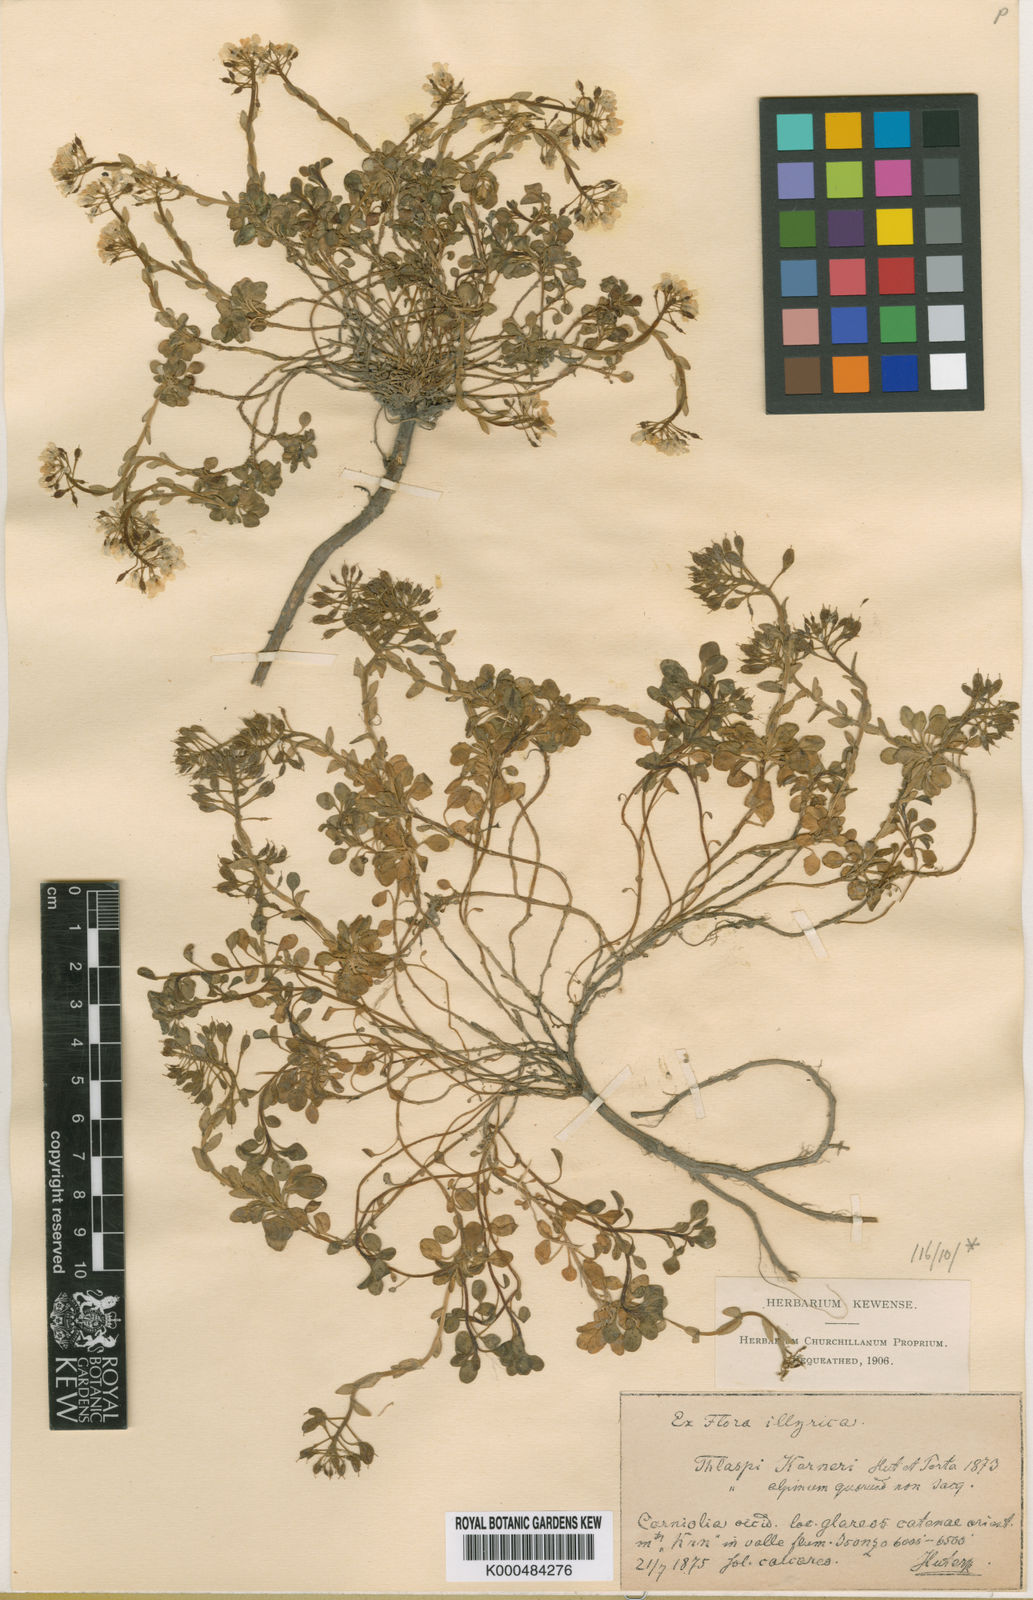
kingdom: Plantae
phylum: Tracheophyta
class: Magnoliopsida
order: Brassicales
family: Brassicaceae
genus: Noccaea
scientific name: Noccaea minima
